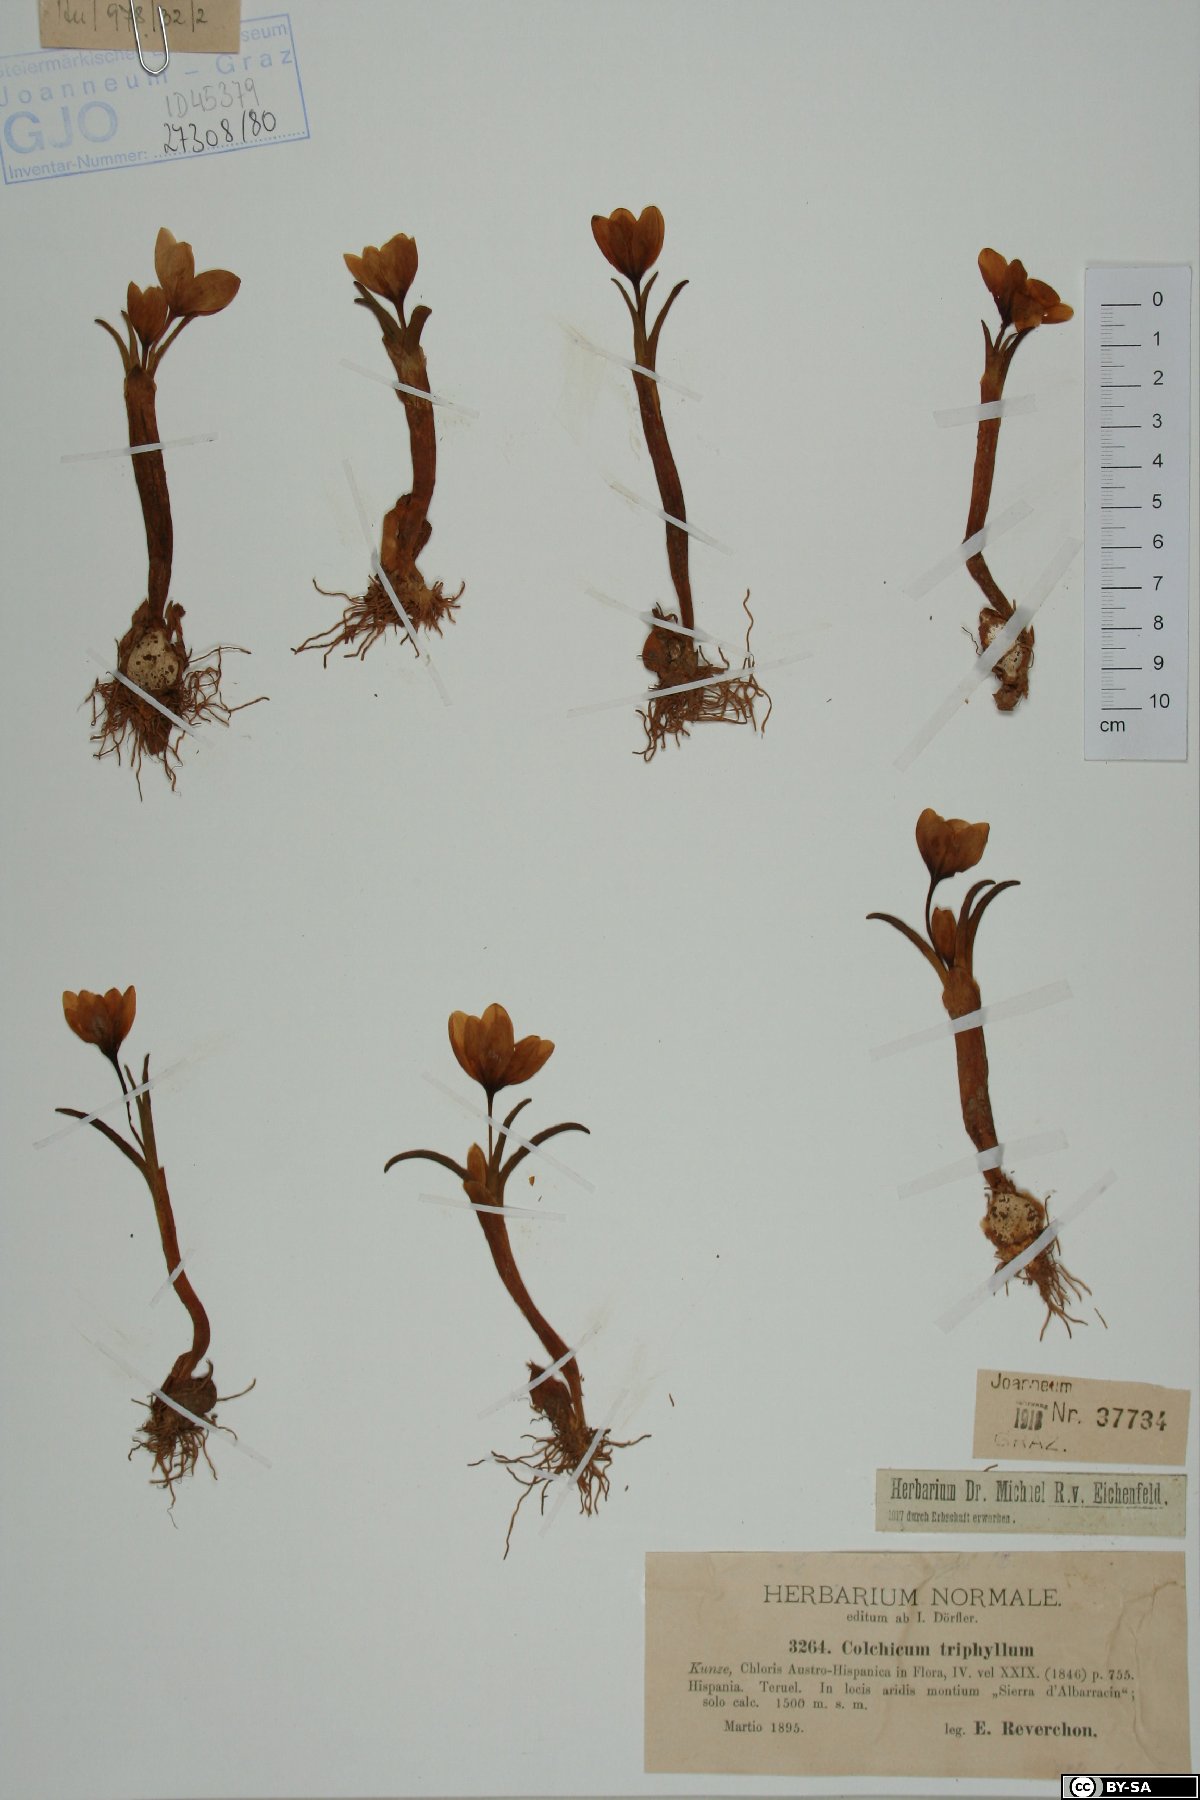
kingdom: Plantae
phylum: Tracheophyta
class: Liliopsida
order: Liliales
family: Colchicaceae
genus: Colchicum
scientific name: Colchicum triphyllum
